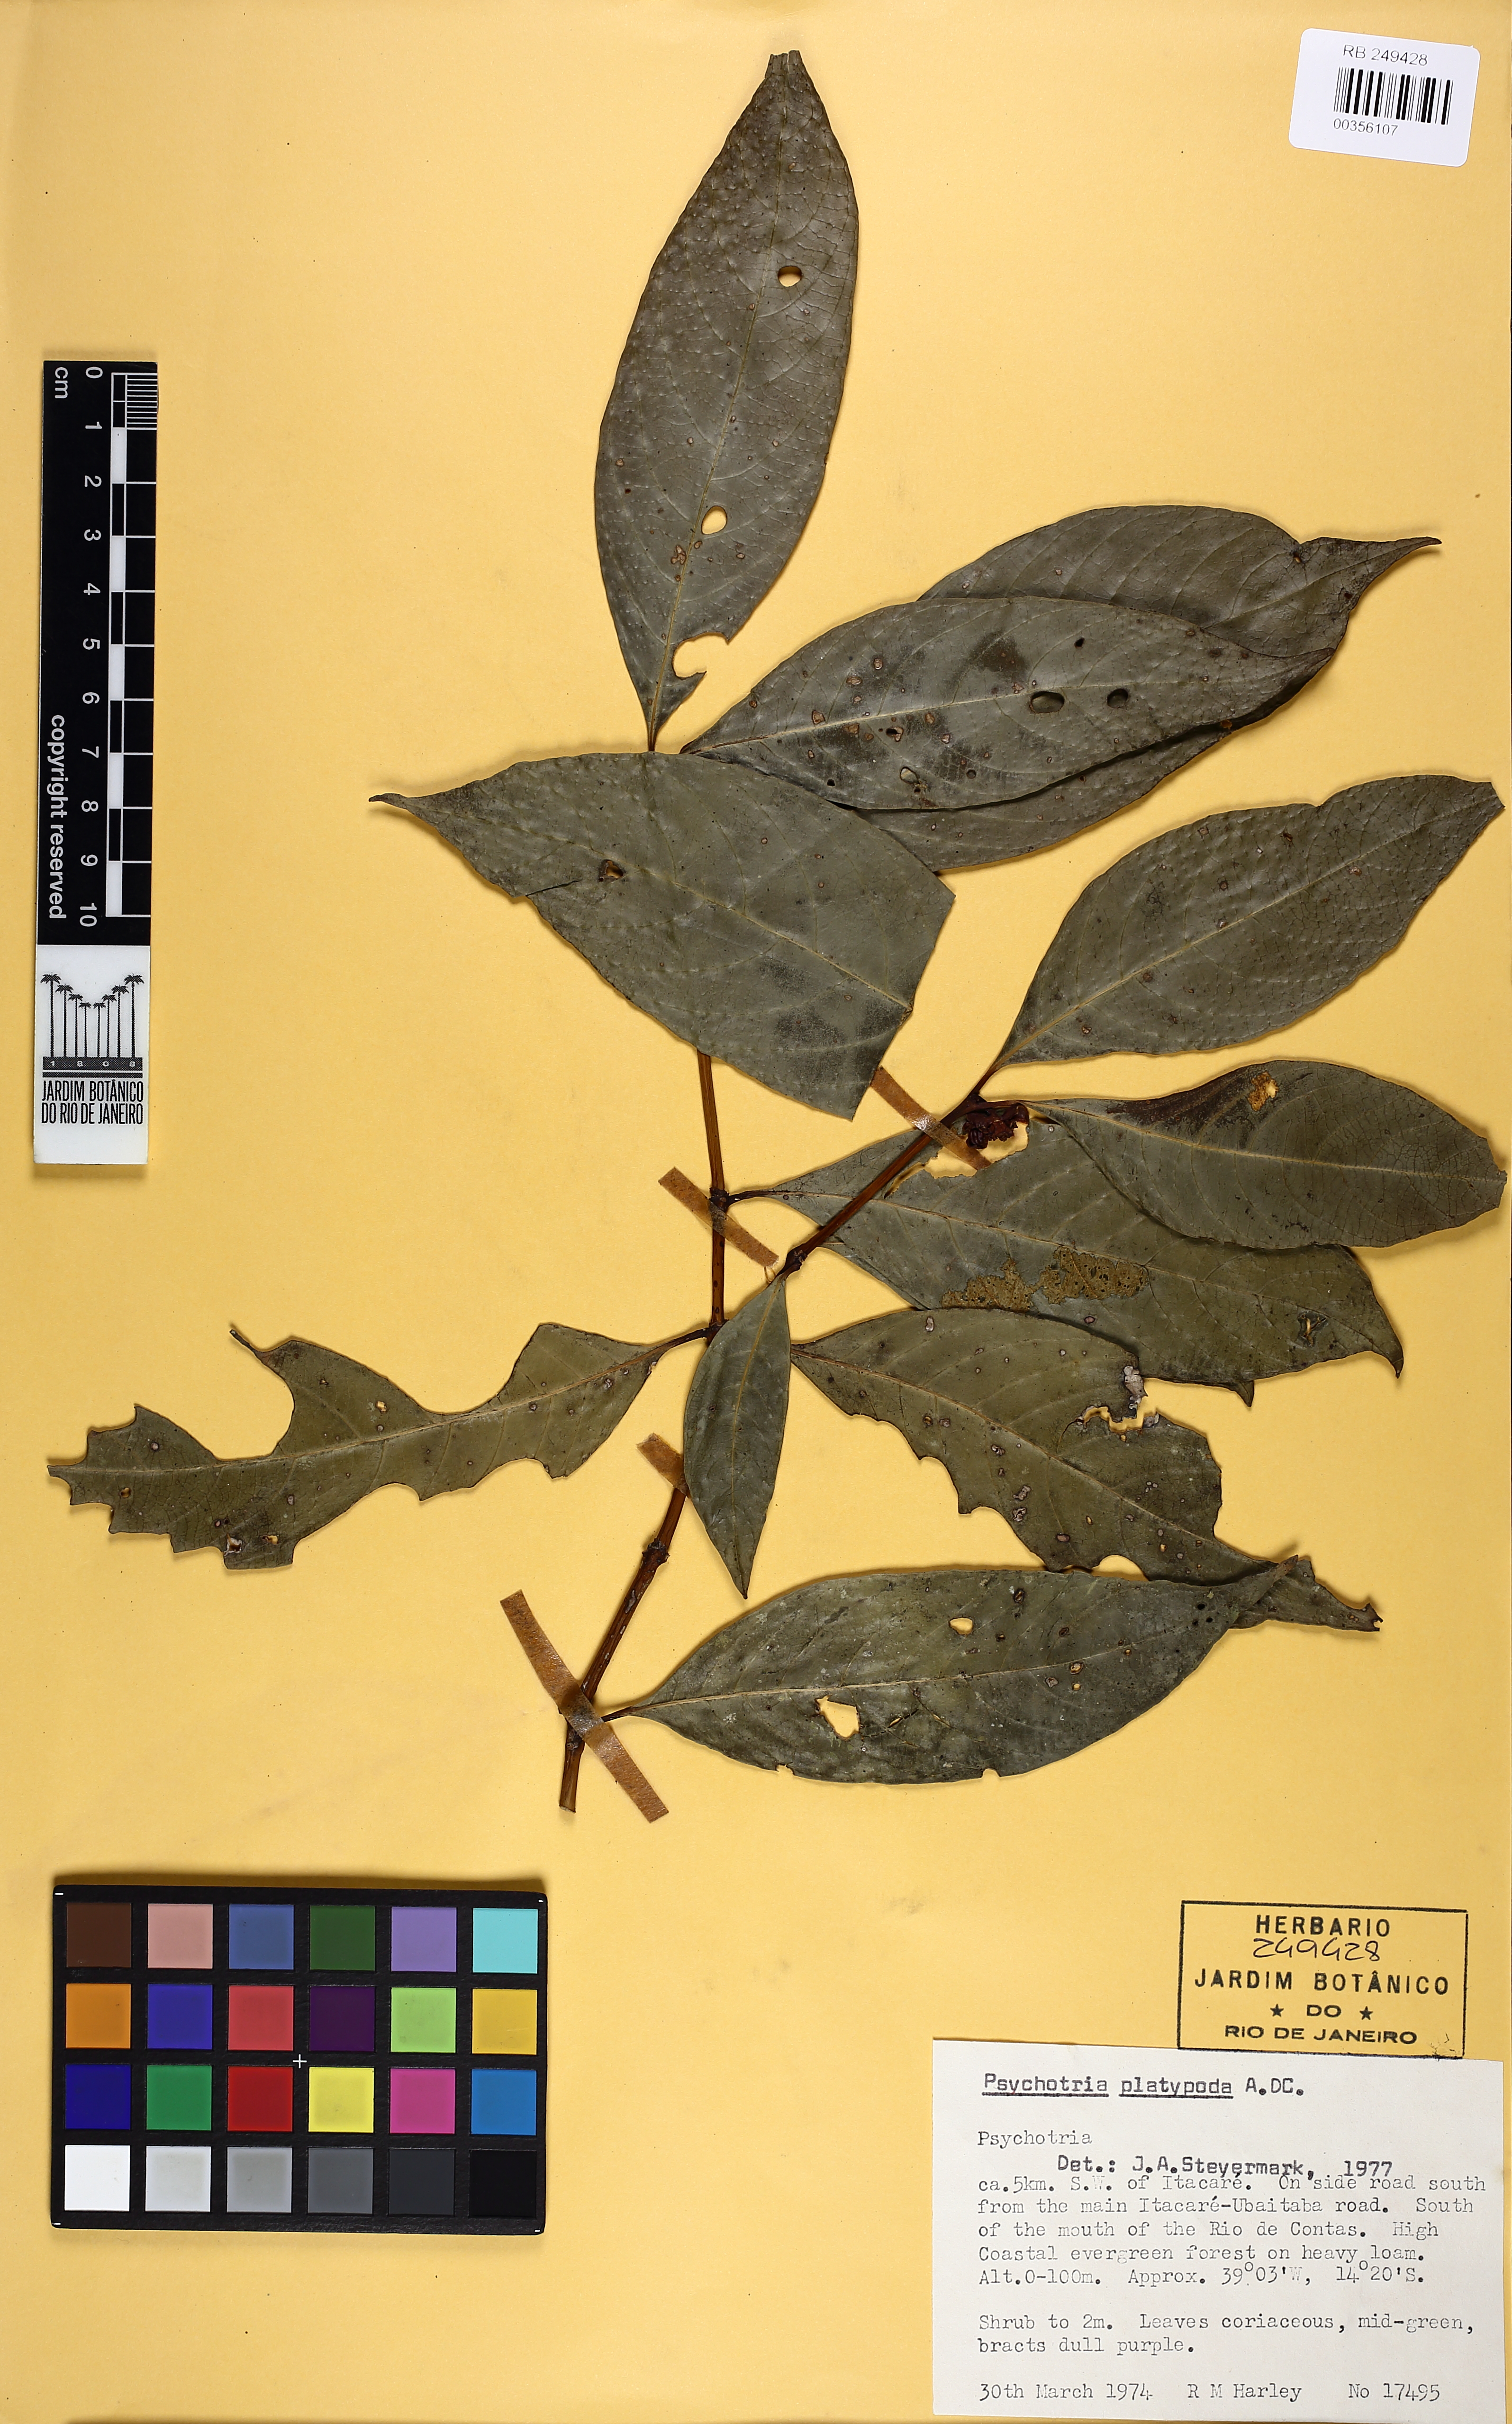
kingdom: Plantae
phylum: Tracheophyta
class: Magnoliopsida
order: Gentianales
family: Rubiaceae
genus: Palicourea
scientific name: Palicourea dichotoma
